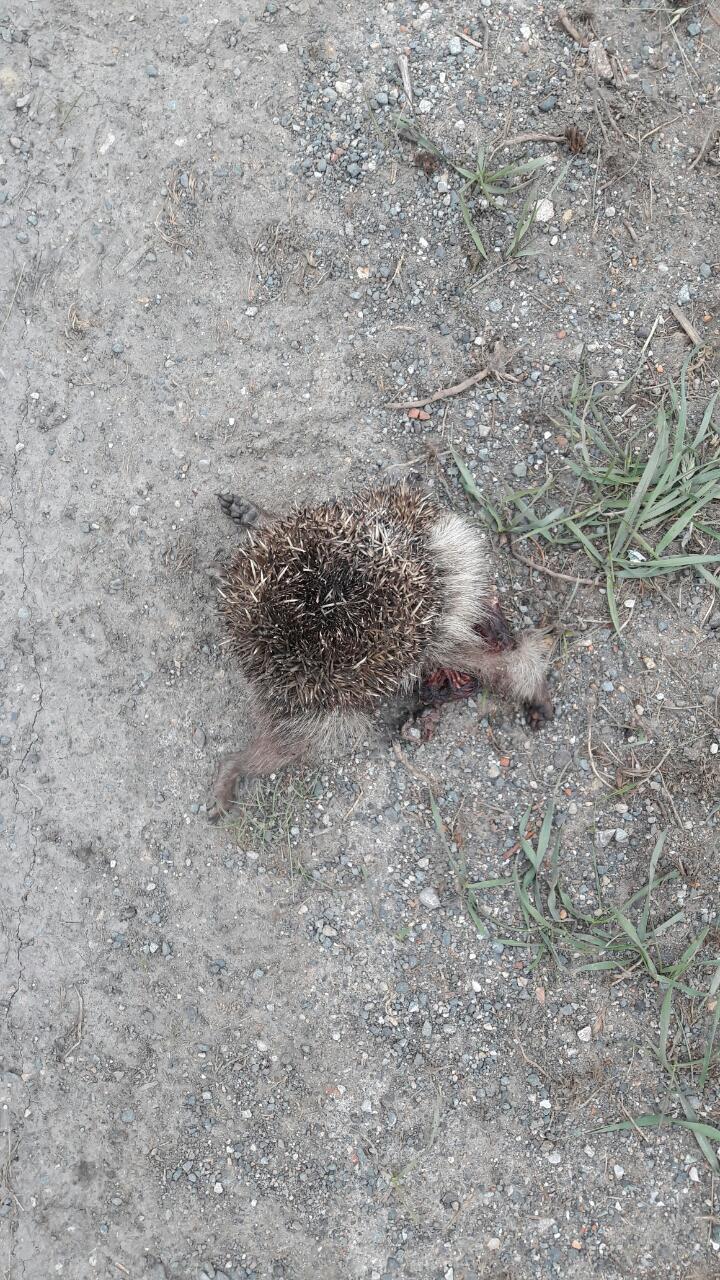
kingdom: Animalia
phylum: Chordata
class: Mammalia
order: Erinaceomorpha
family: Erinaceidae
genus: Erinaceus
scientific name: Erinaceus
